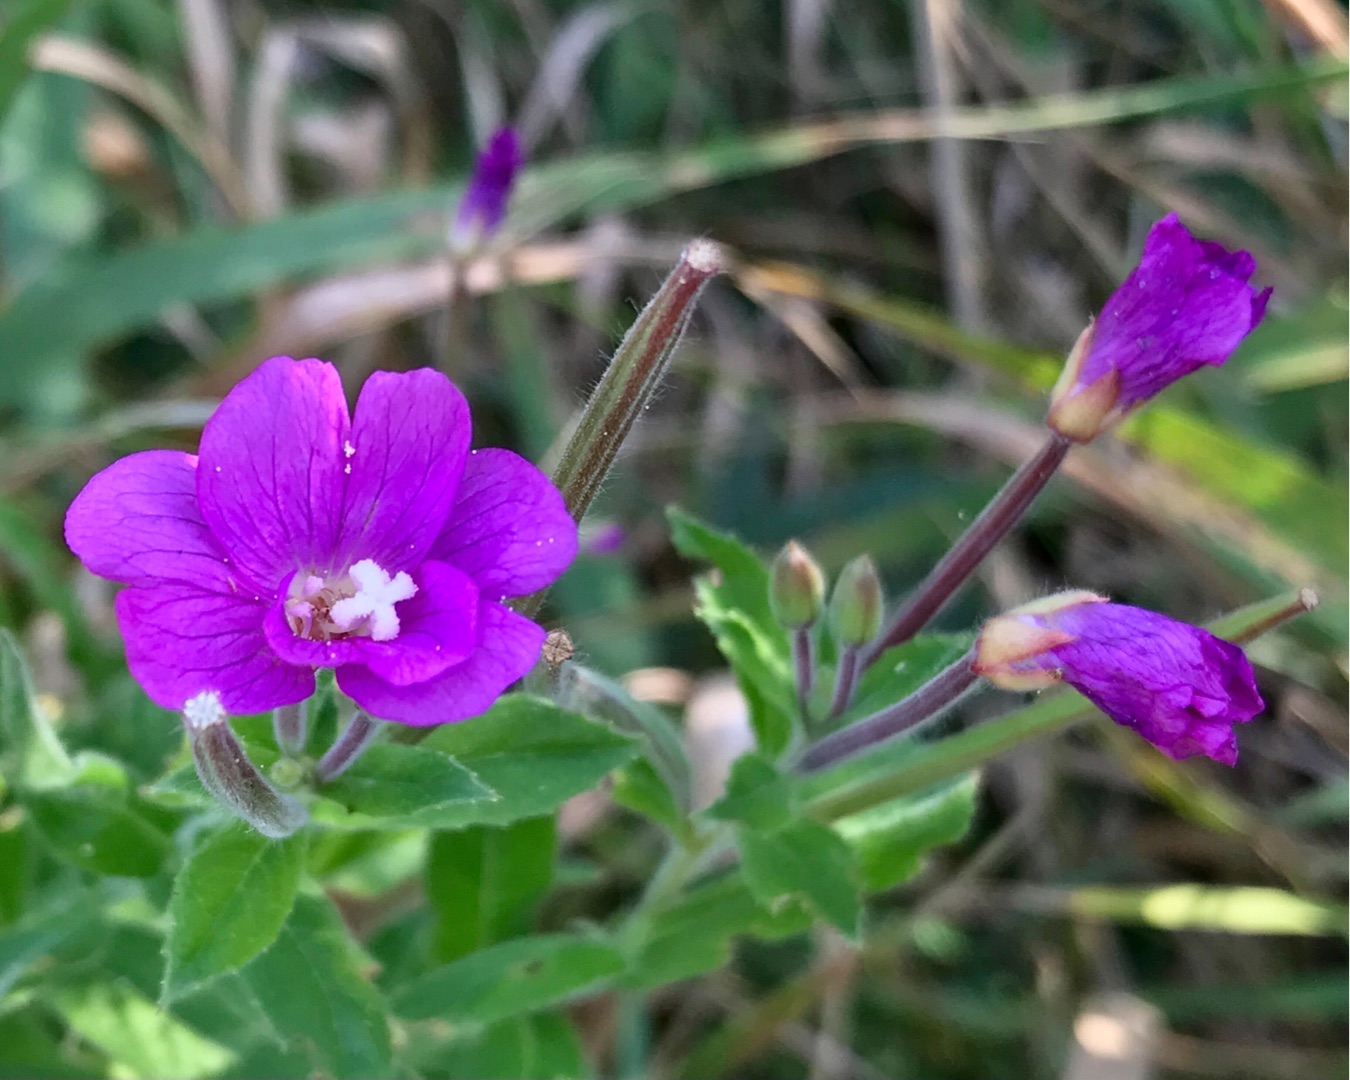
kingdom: Plantae
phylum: Tracheophyta
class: Magnoliopsida
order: Myrtales
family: Onagraceae
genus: Epilobium
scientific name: Epilobium hirsutum
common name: Lådden dueurt
